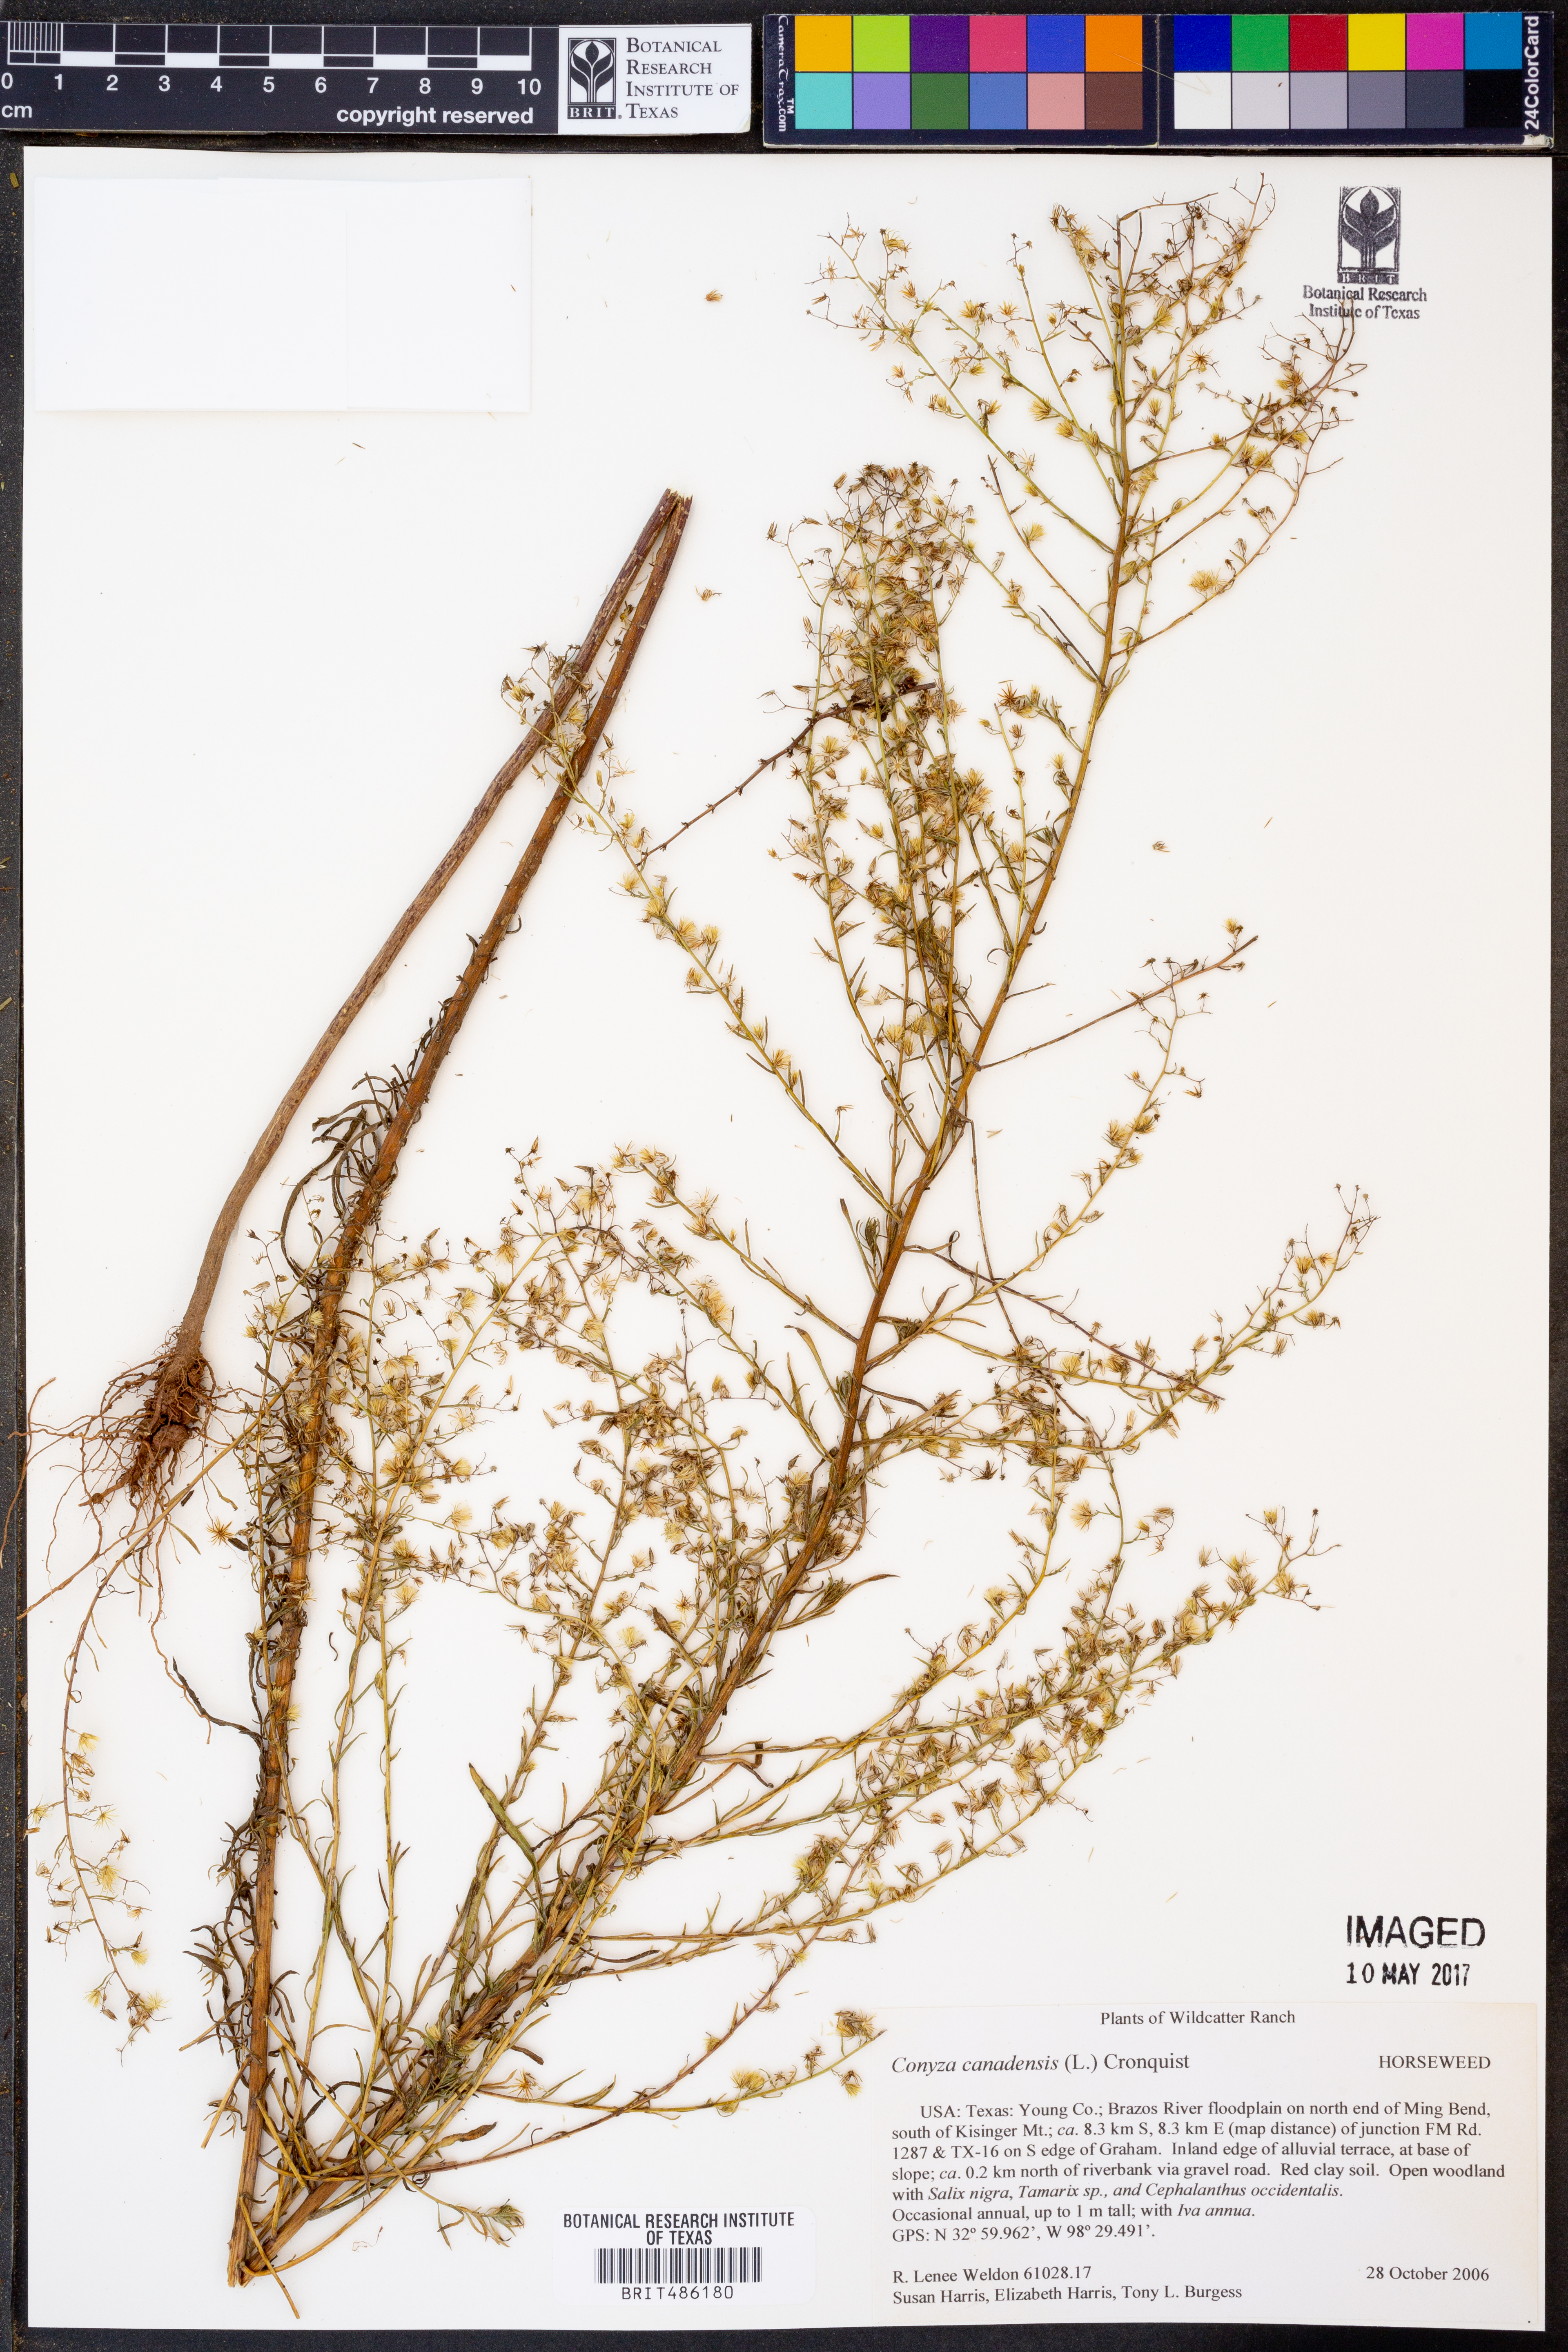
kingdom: Plantae
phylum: Tracheophyta
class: Magnoliopsida
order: Asterales
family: Asteraceae
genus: Erigeron
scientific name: Erigeron canadensis
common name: Canadian fleabane
